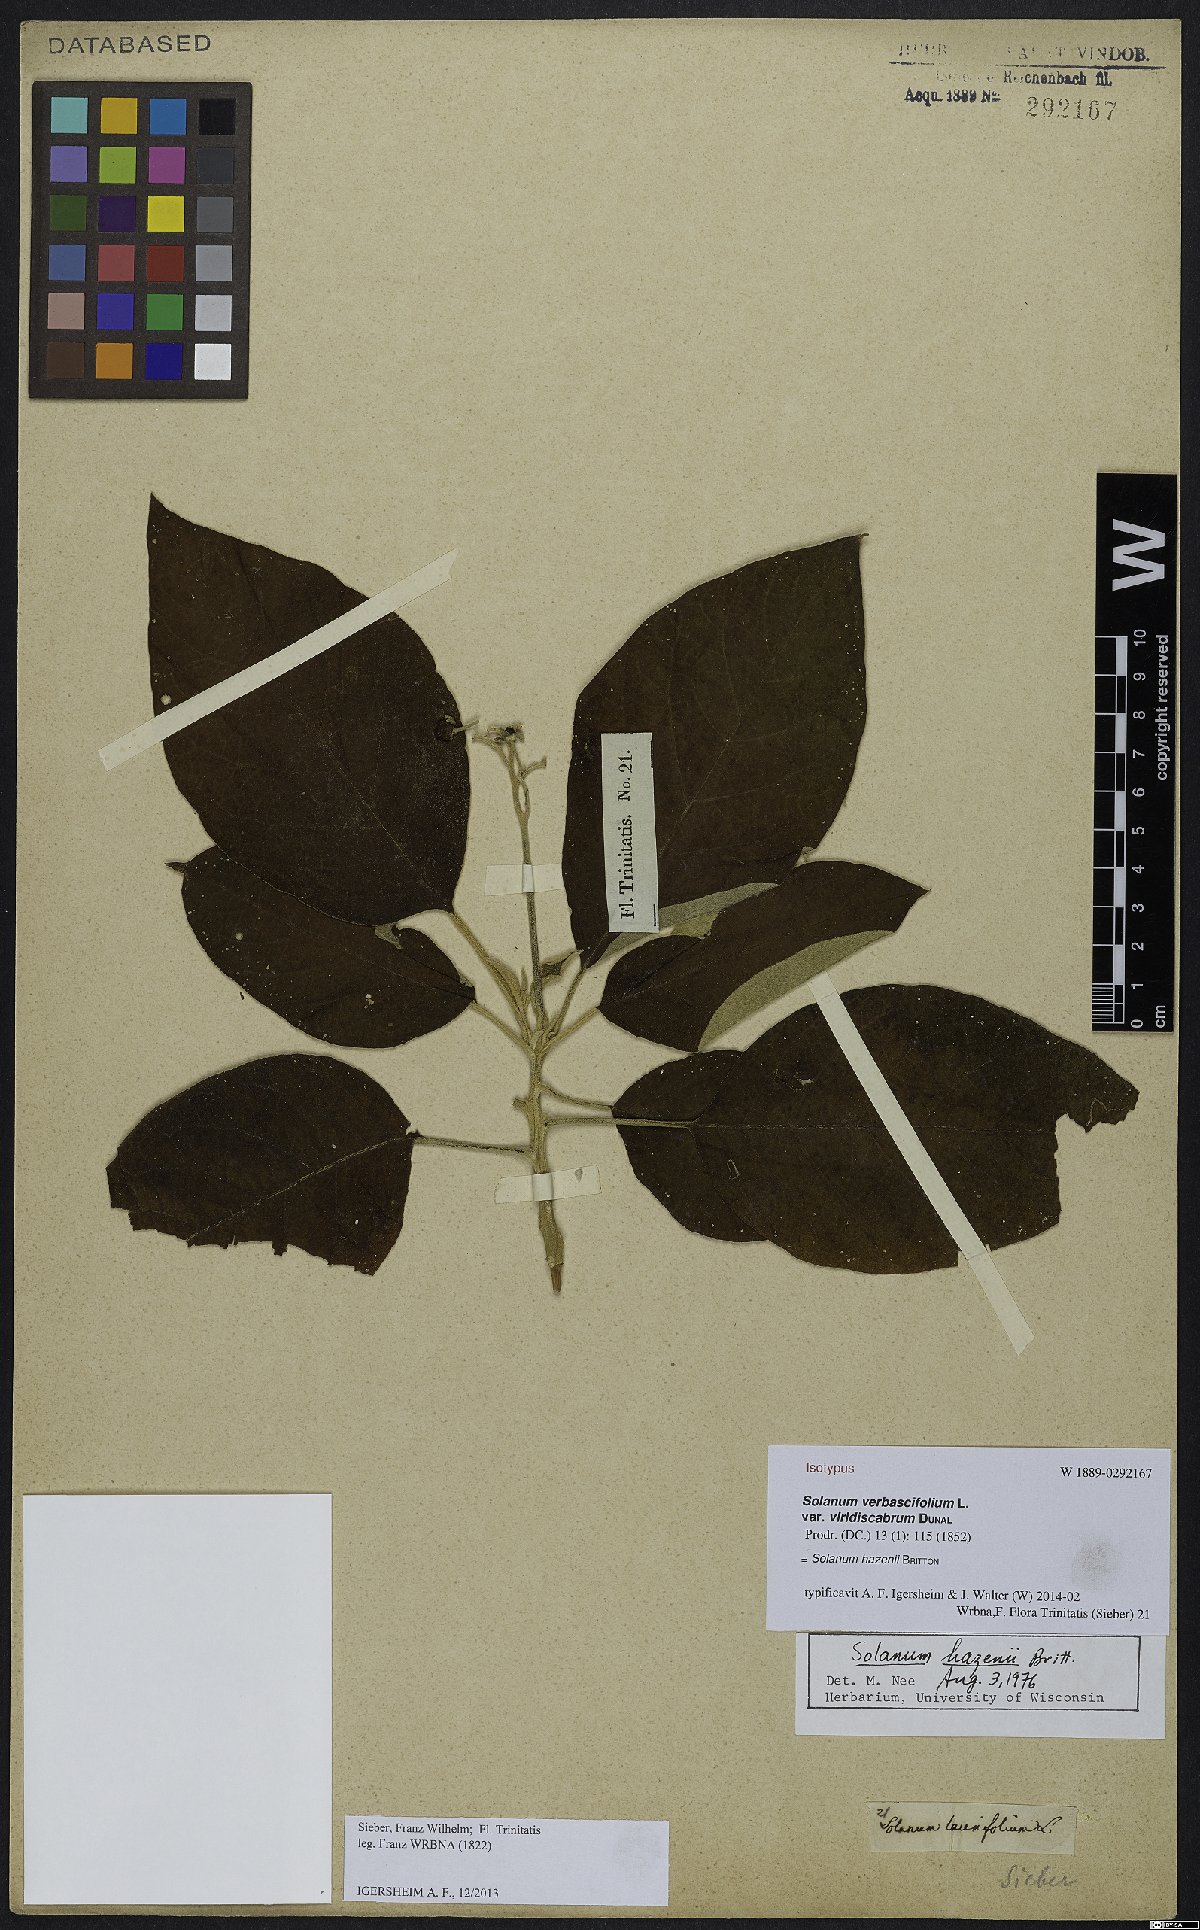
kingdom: Plantae
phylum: Tracheophyta
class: Magnoliopsida
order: Solanales
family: Solanaceae
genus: Solanum
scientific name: Solanum hazenii
